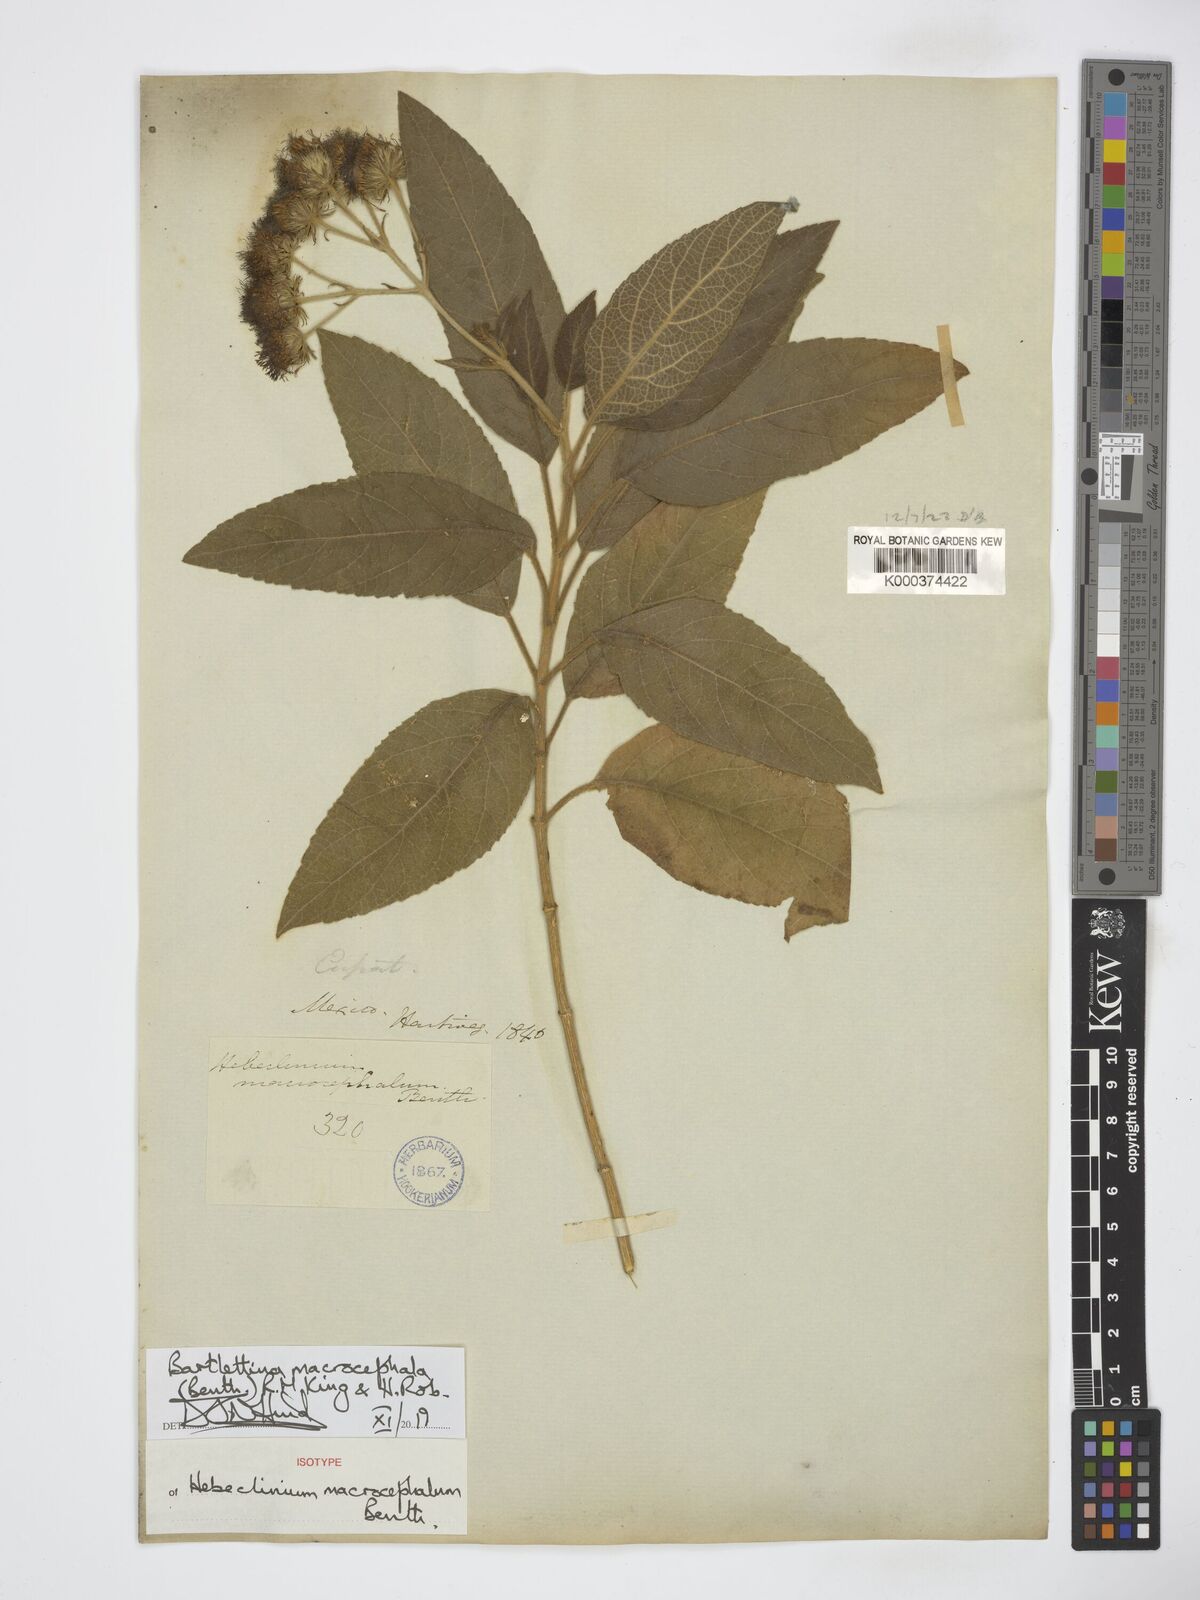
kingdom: Plantae
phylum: Tracheophyta
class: Magnoliopsida
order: Asterales
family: Asteraceae
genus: Bartlettina
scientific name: Bartlettina ehrenbergii
